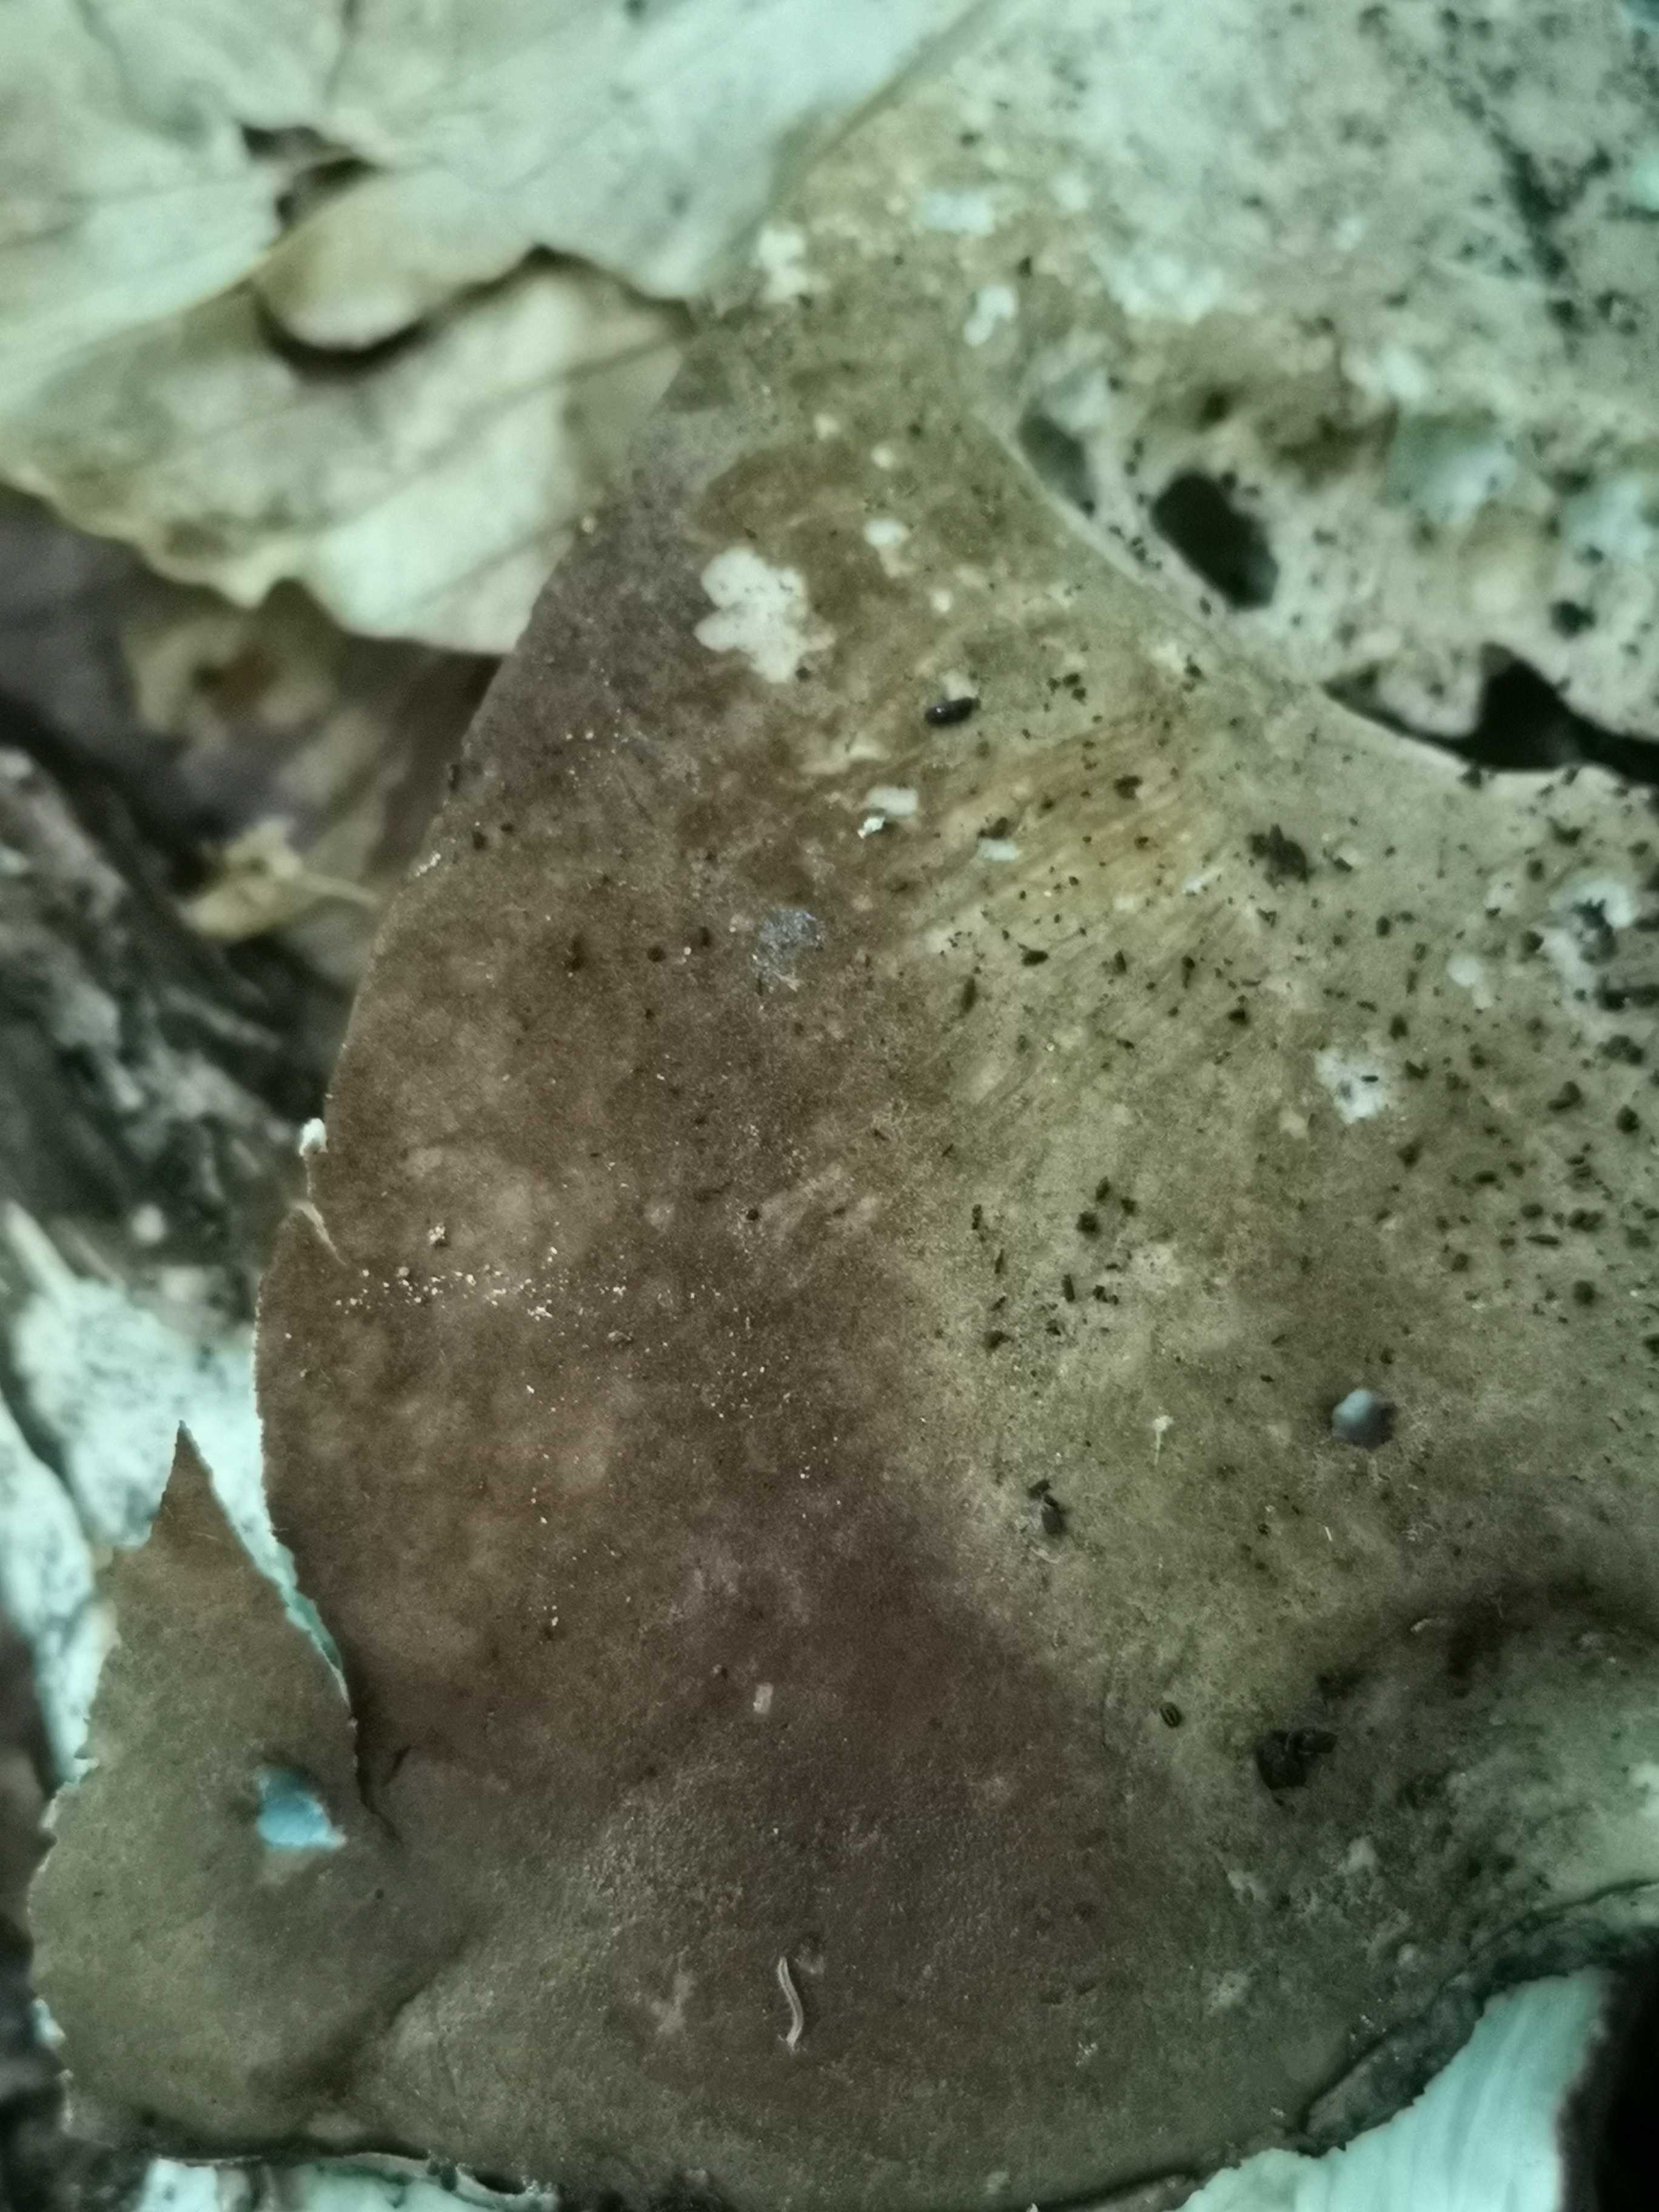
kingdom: Fungi
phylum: Basidiomycota
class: Agaricomycetes
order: Boletales
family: Boletaceae
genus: Porphyrellus
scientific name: Porphyrellus porphyrosporus
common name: sodrørhat
